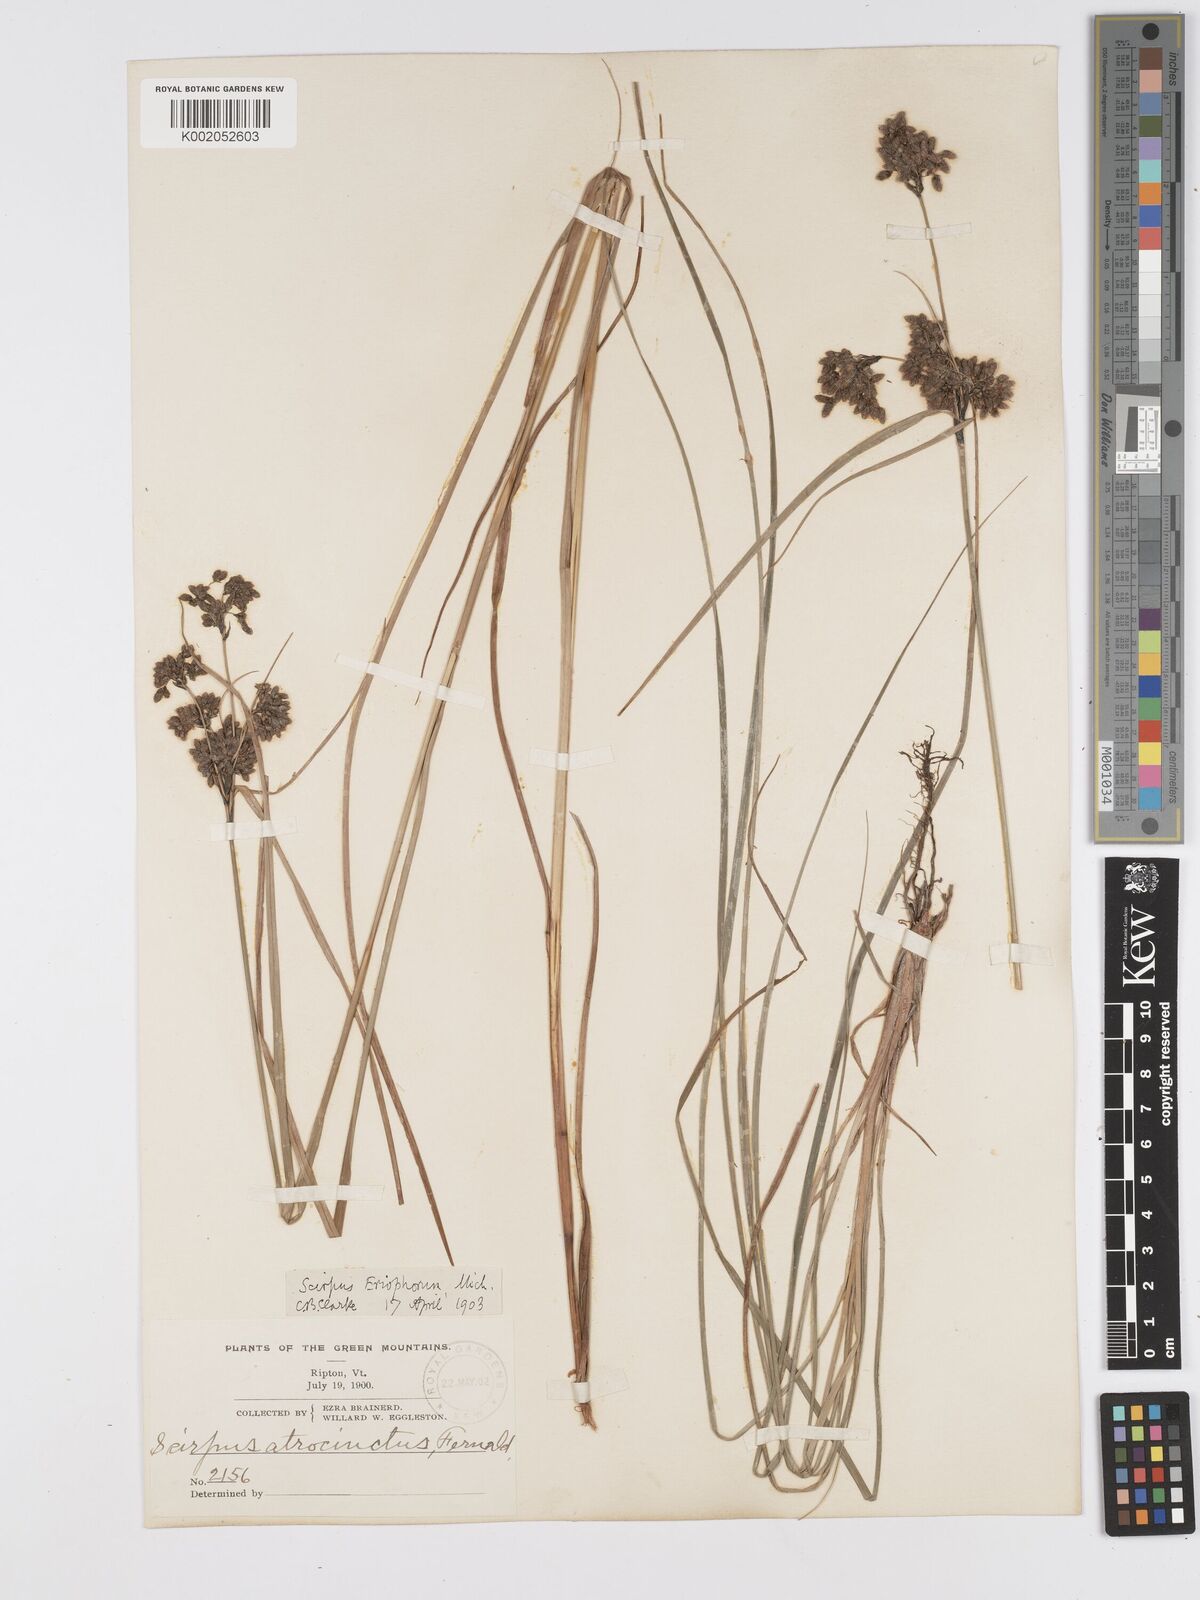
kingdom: Plantae
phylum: Tracheophyta
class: Liliopsida
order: Poales
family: Cyperaceae
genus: Scirpus
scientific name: Scirpus atrocinctus
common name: Black-girdled bulrush
